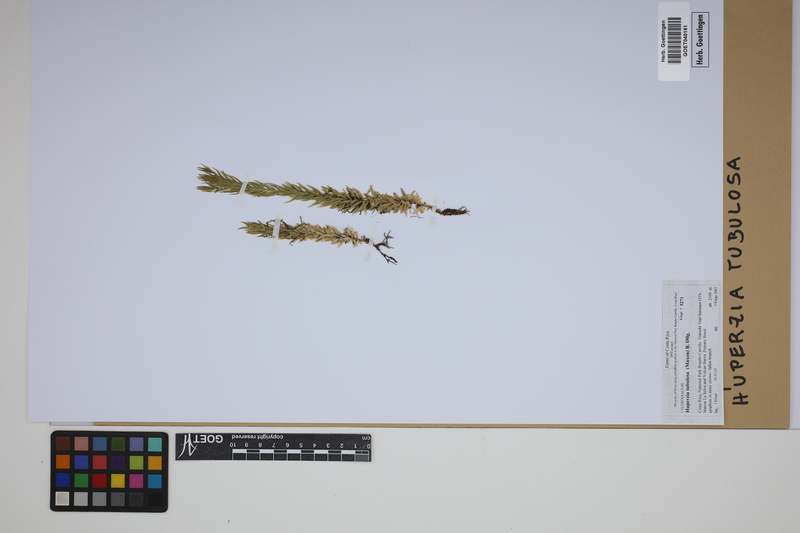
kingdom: Plantae
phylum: Tracheophyta
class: Lycopodiopsida
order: Lycopodiales
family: Lycopodiaceae
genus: Phlegmariurus
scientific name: Phlegmariurus tubulosus
